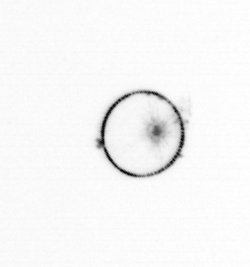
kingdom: Chromista
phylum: Myzozoa
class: Dinophyceae
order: Noctilucales
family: Noctilucaceae
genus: Noctiluca
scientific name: Noctiluca scintillans
